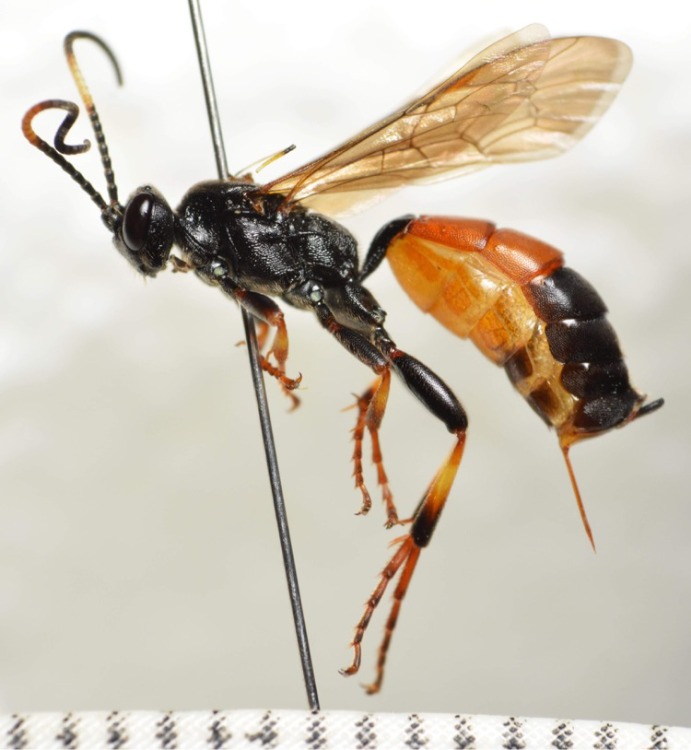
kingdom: Animalia
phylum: Arthropoda
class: Insecta
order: Hymenoptera
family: Ichneumonidae
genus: Ichneumon
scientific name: Ichneumon suspiciosus
